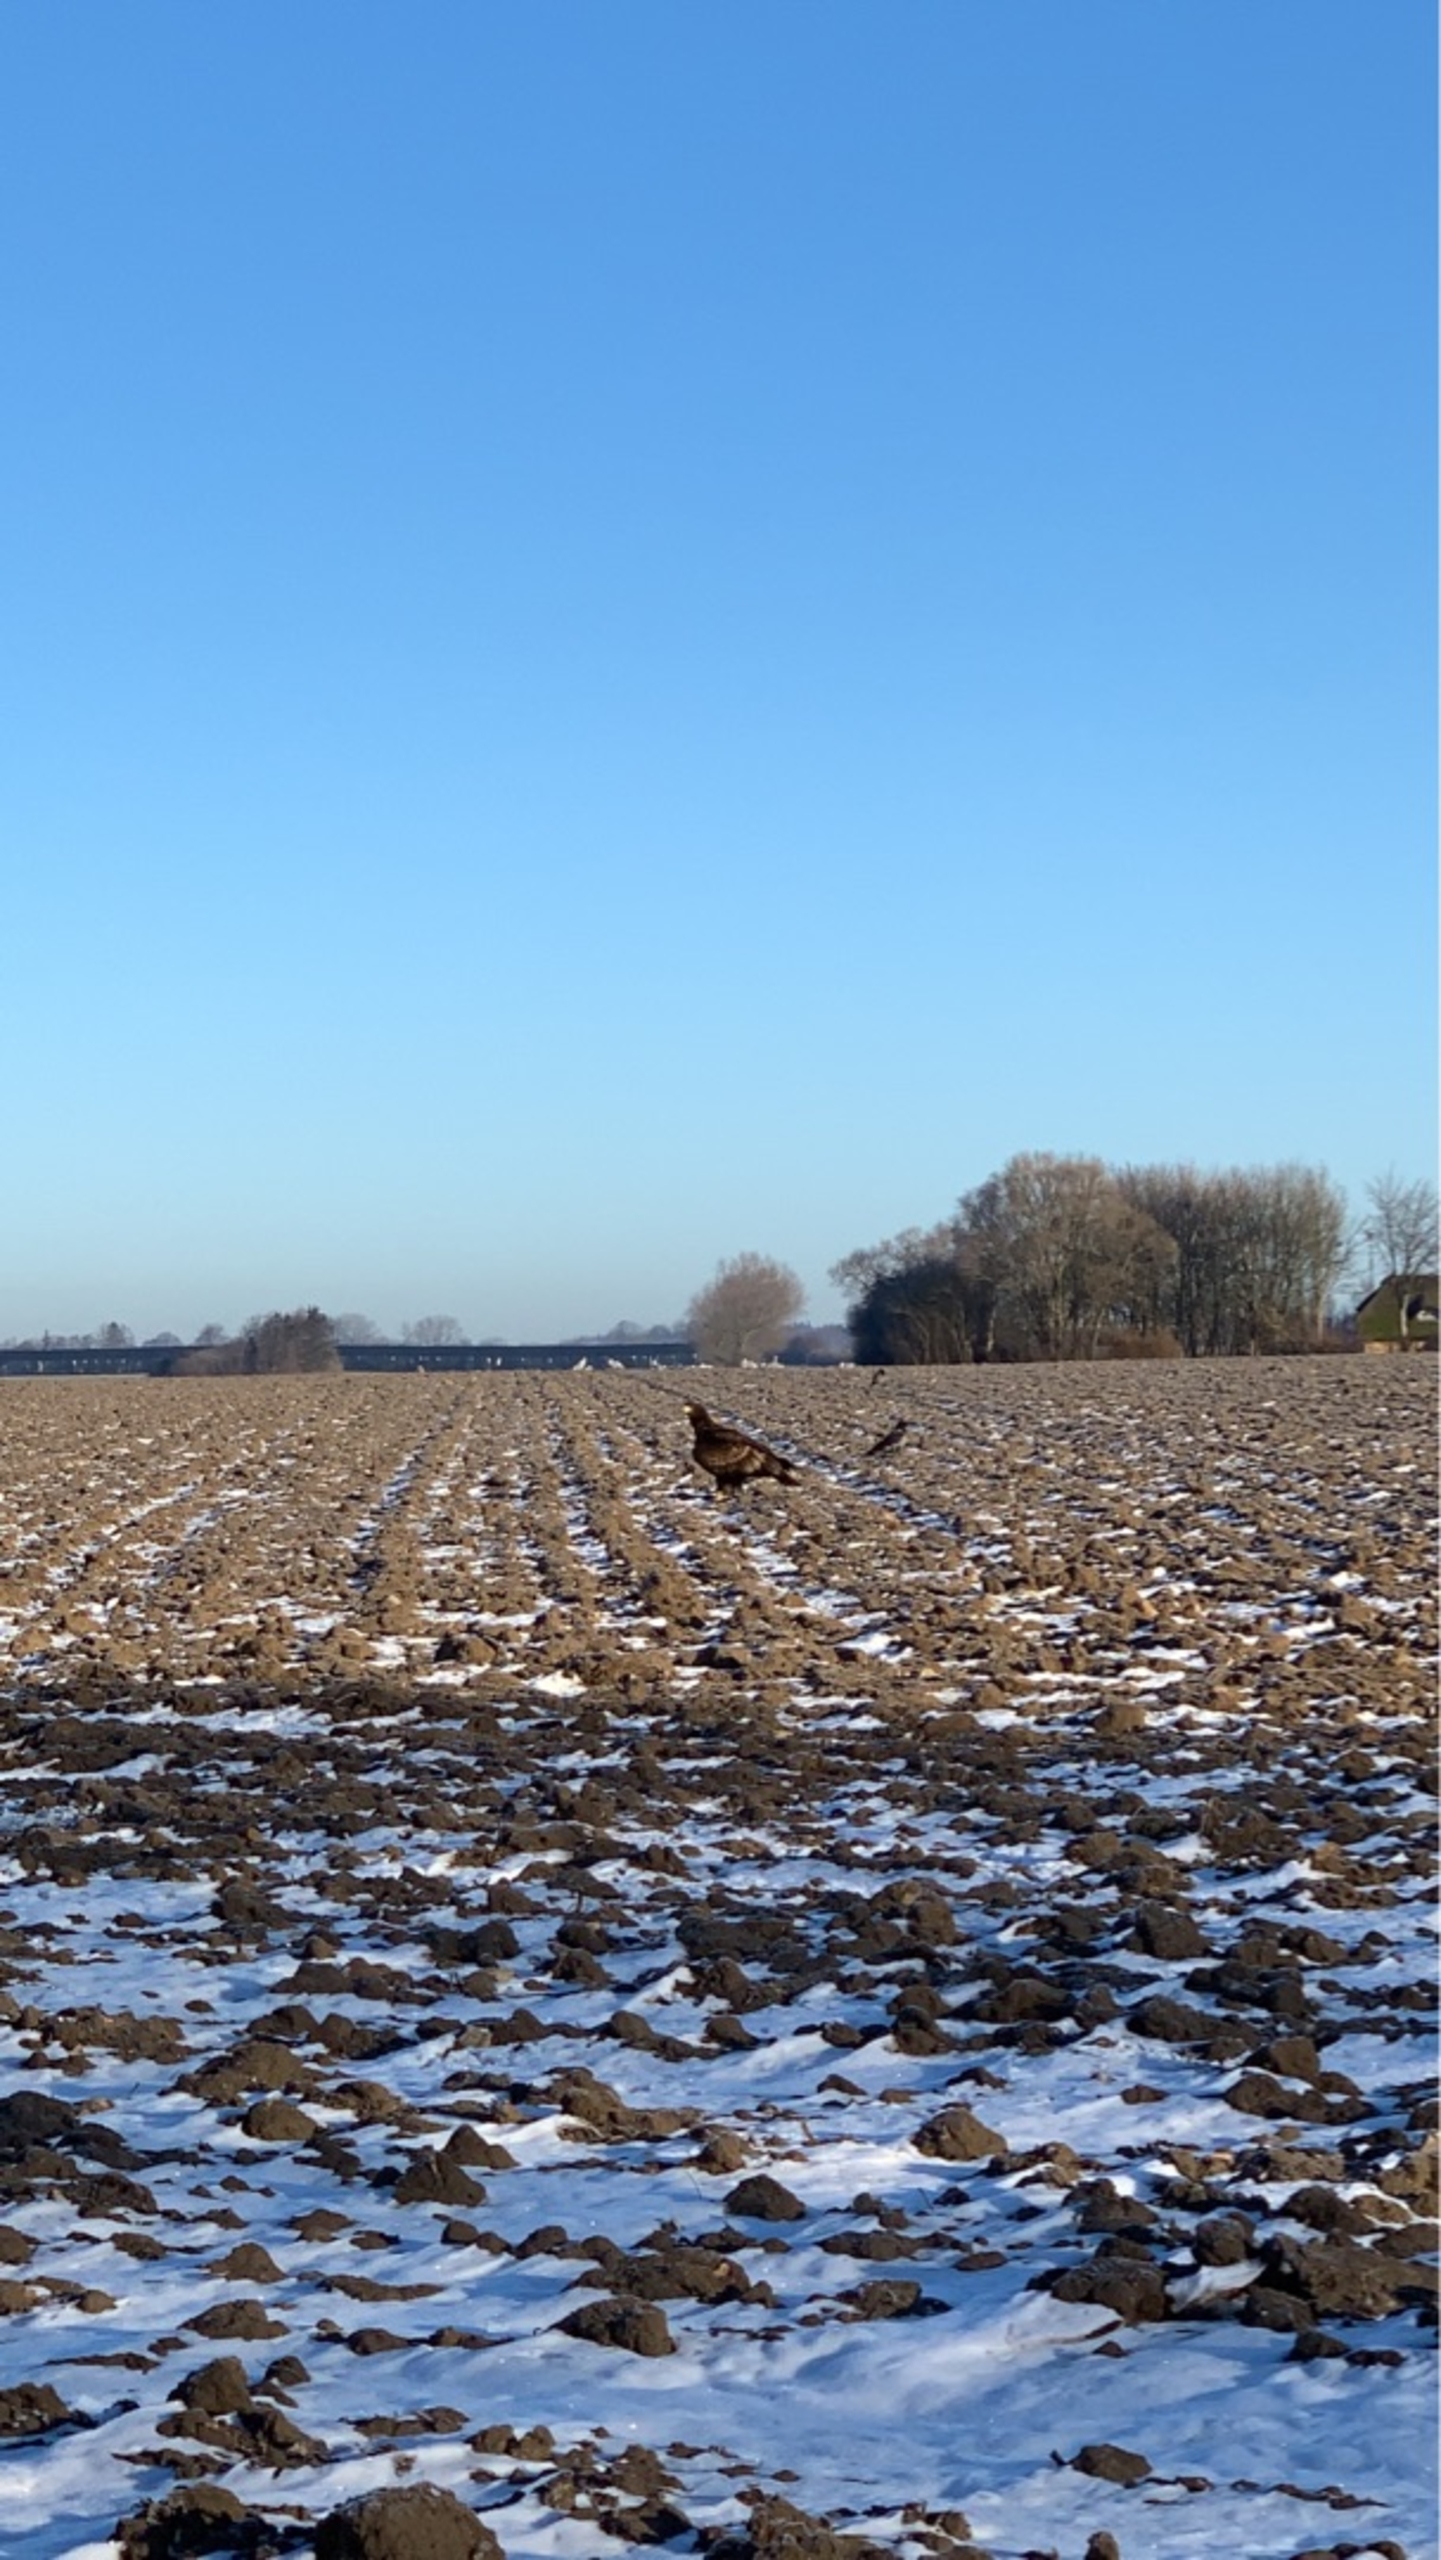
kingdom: Animalia
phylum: Chordata
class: Aves
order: Accipitriformes
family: Accipitridae
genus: Haliaeetus
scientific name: Haliaeetus albicilla
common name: Havørn
